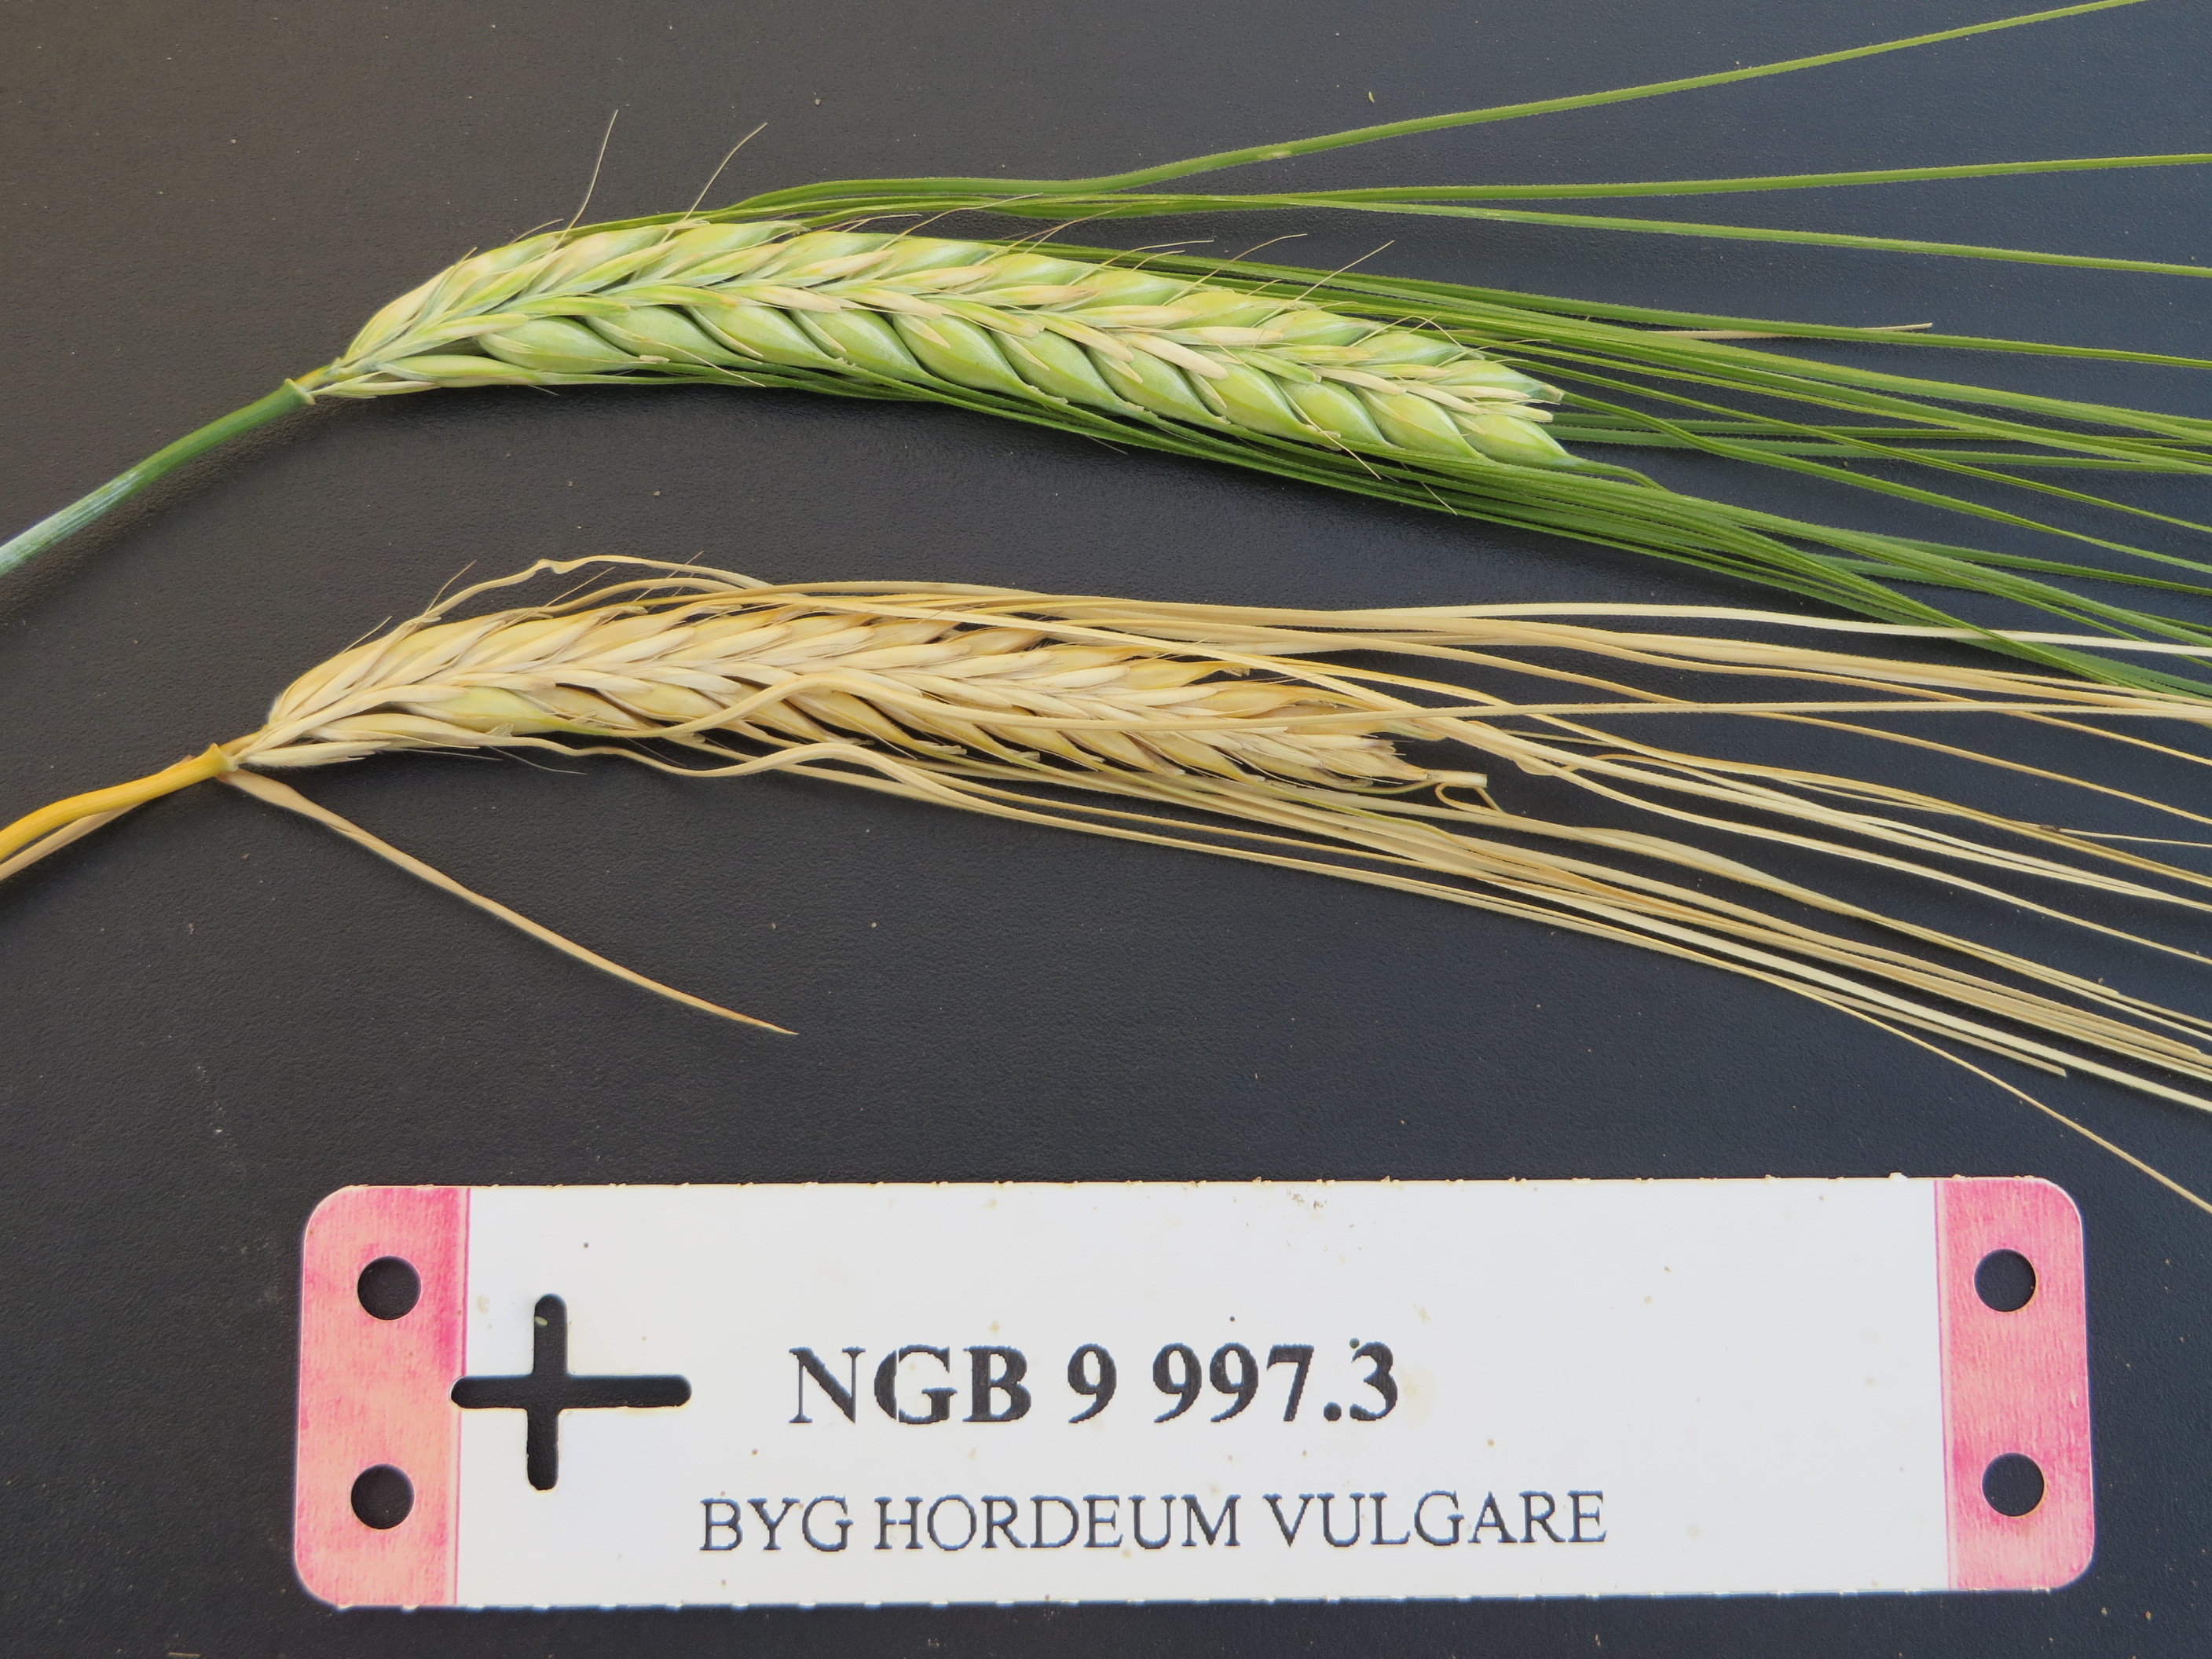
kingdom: Plantae
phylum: Tracheophyta
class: Liliopsida
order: Poales
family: Poaceae
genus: Hordeum
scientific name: Hordeum vulgare
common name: Common barley
